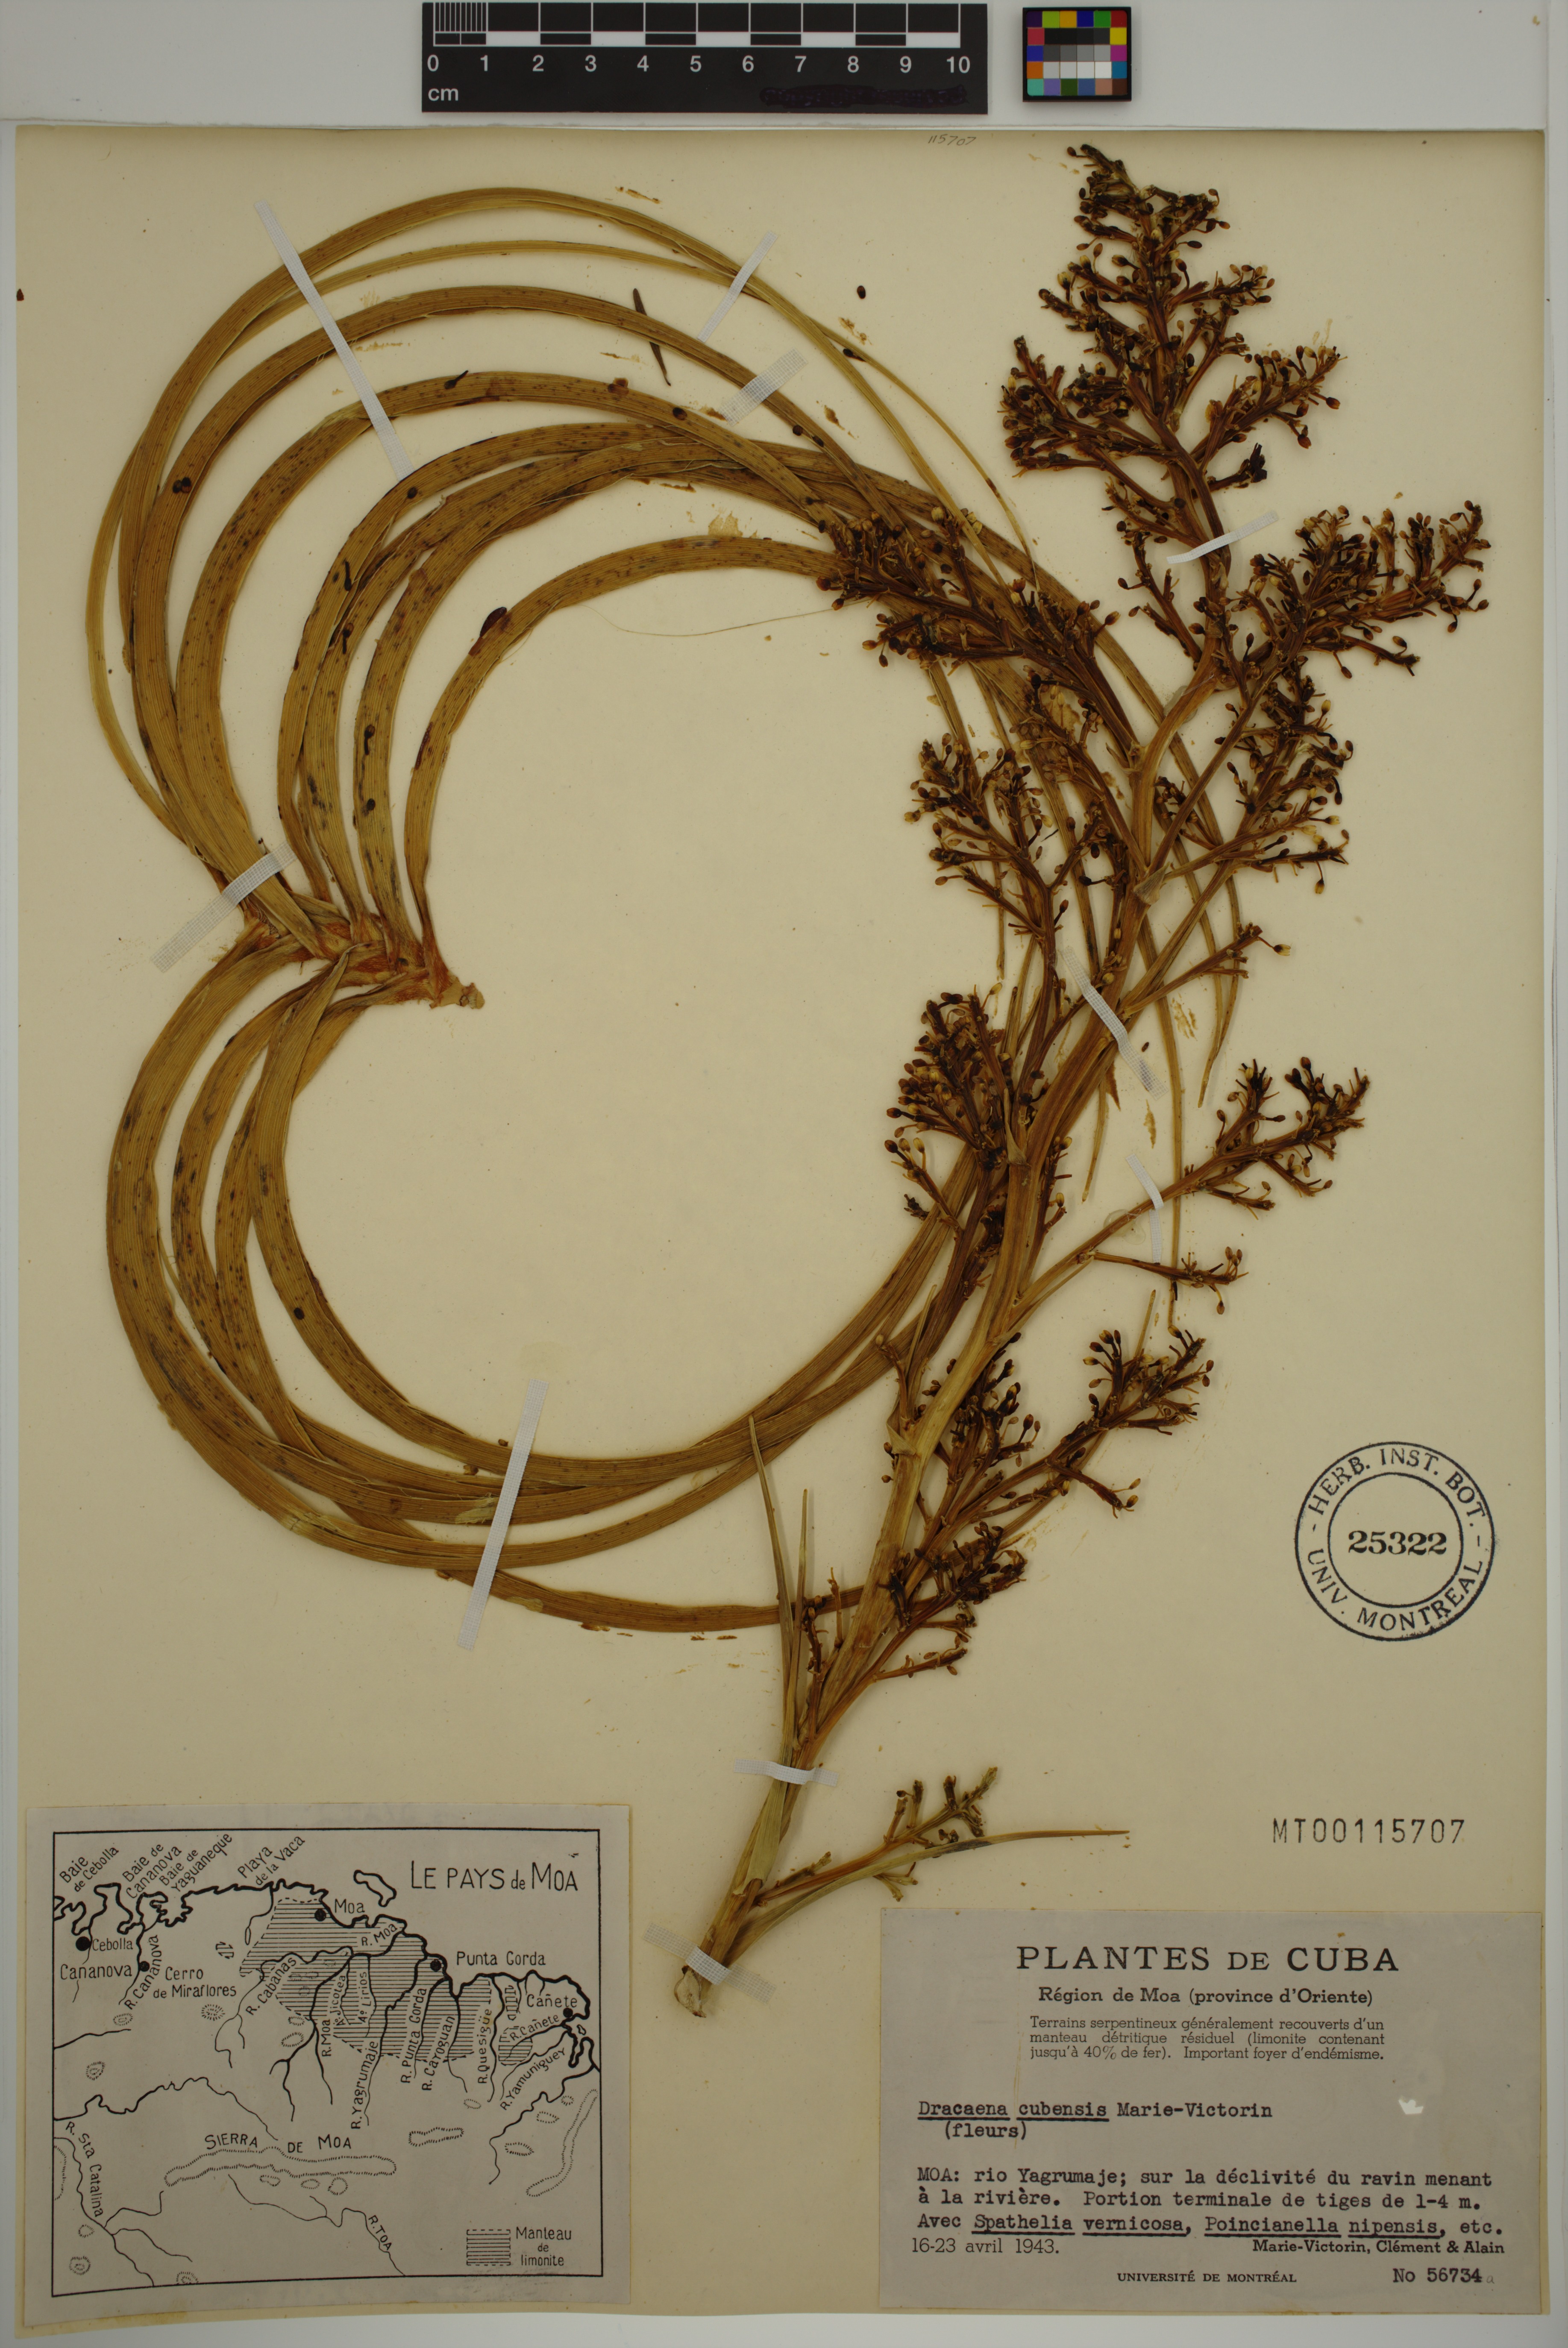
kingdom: Plantae
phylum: Tracheophyta
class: Liliopsida
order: Asparagales
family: Asparagaceae
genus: Dracaena
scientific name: Dracaena cubensis
